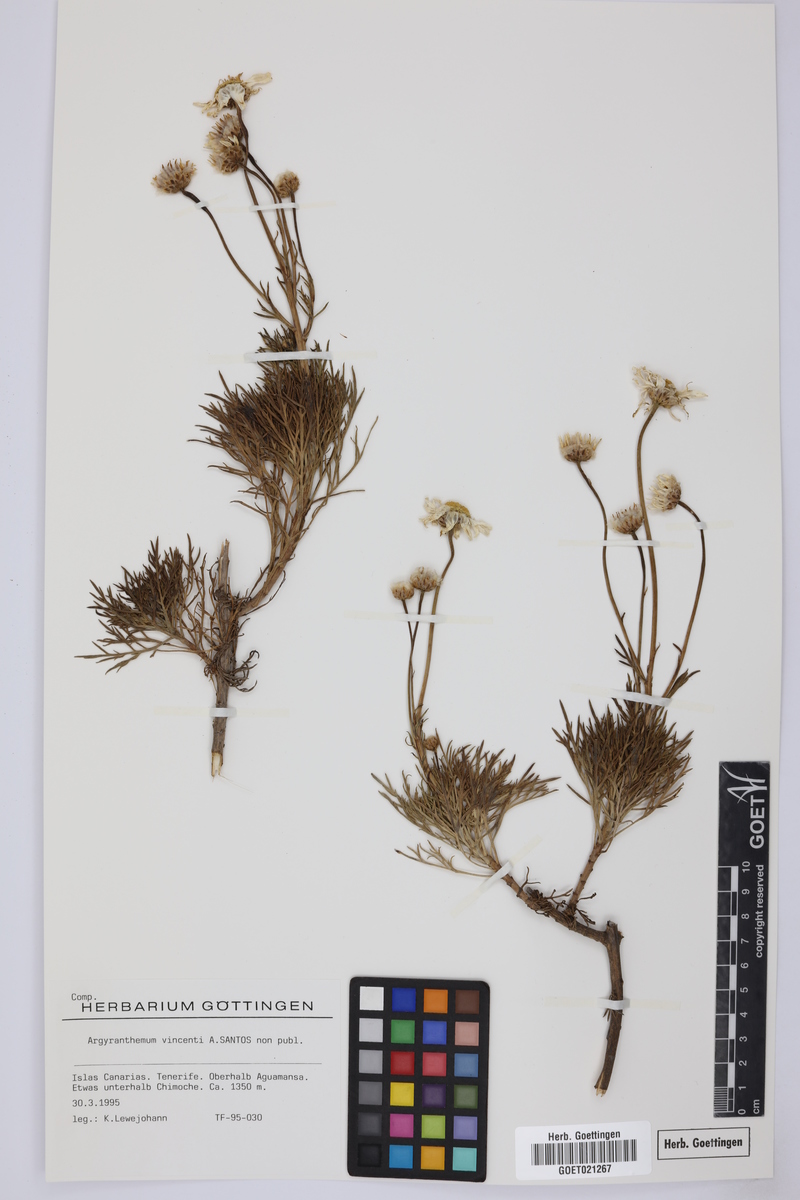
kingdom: Plantae
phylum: Tracheophyta
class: Magnoliopsida
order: Asterales
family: Asteraceae
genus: Argyranthemum
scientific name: Argyranthemum vincentii
